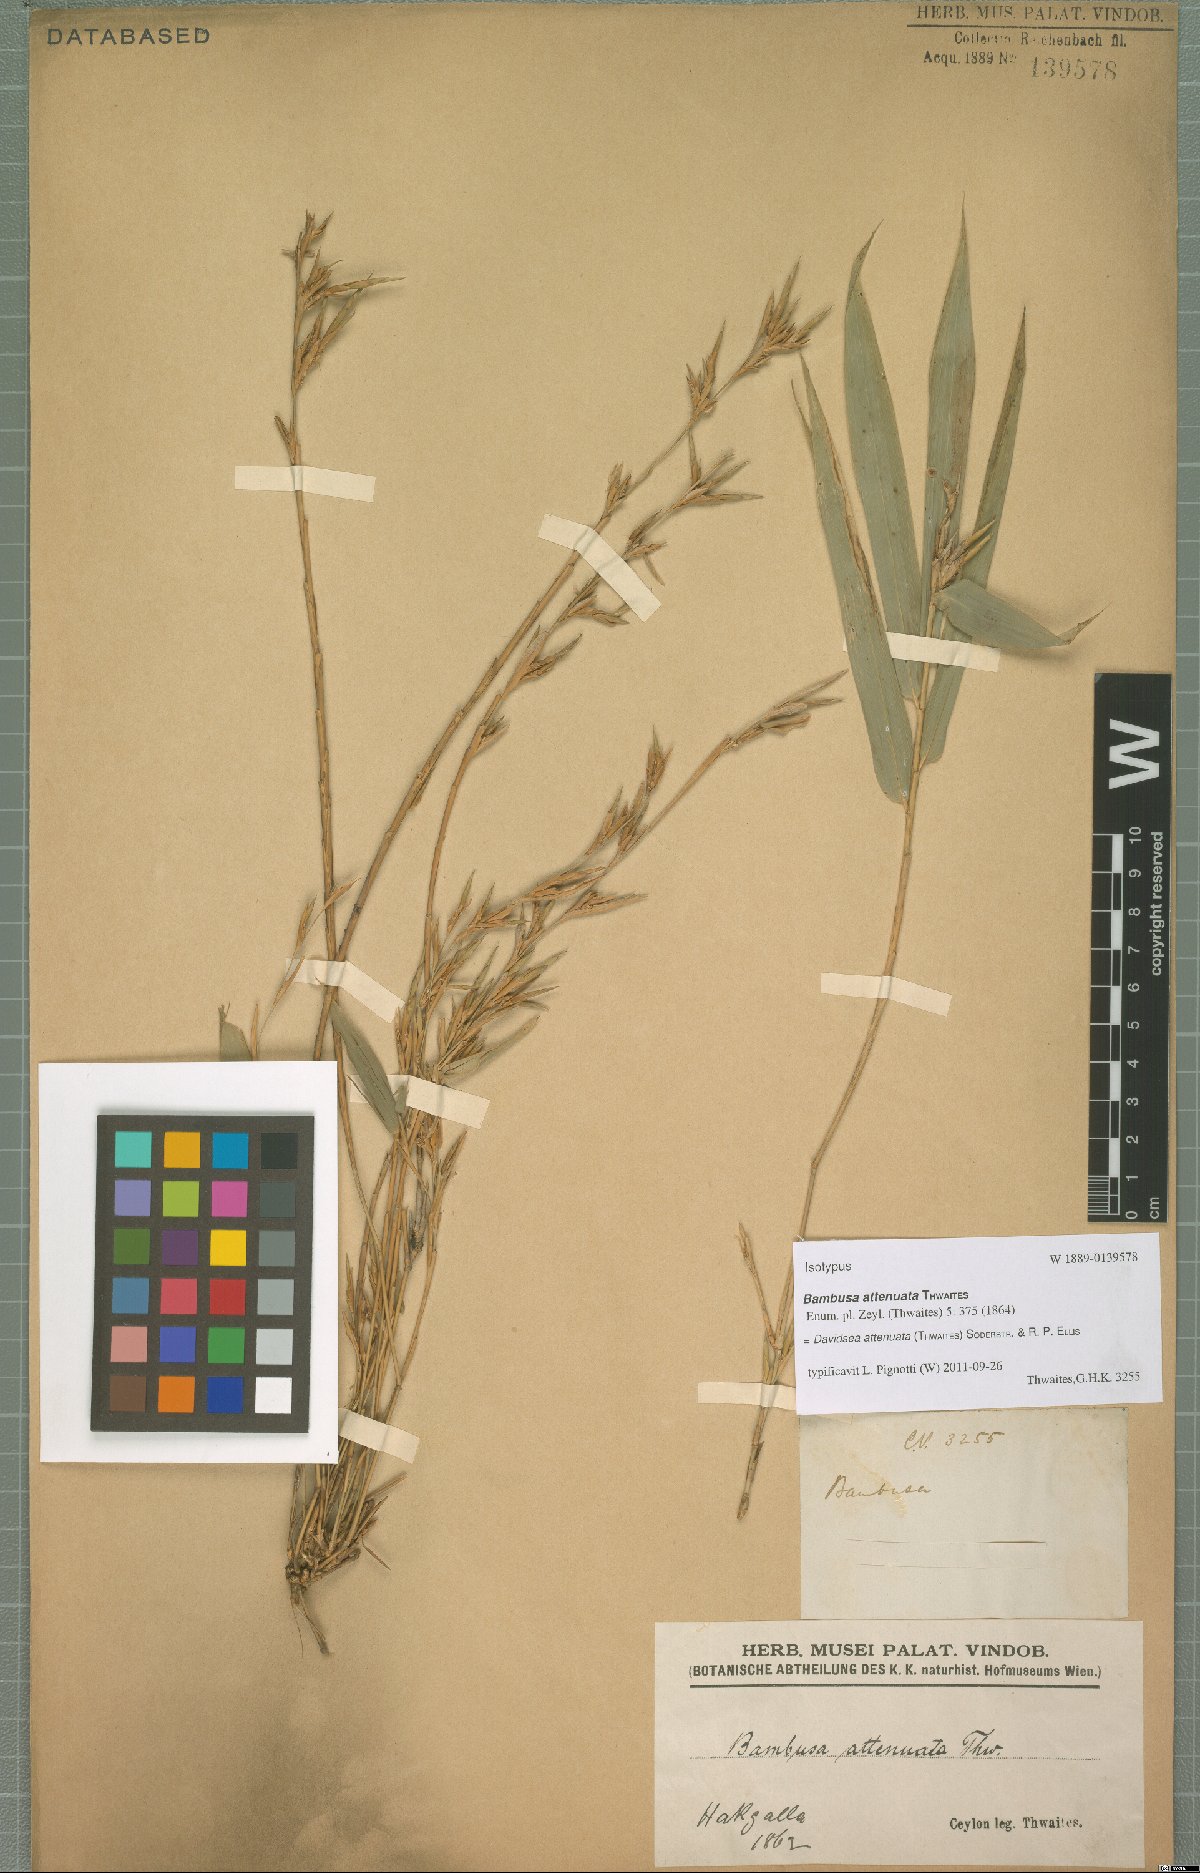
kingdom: Plantae
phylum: Tracheophyta
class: Liliopsida
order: Poales
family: Poaceae
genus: Davidsea
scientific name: Davidsea attenuata
